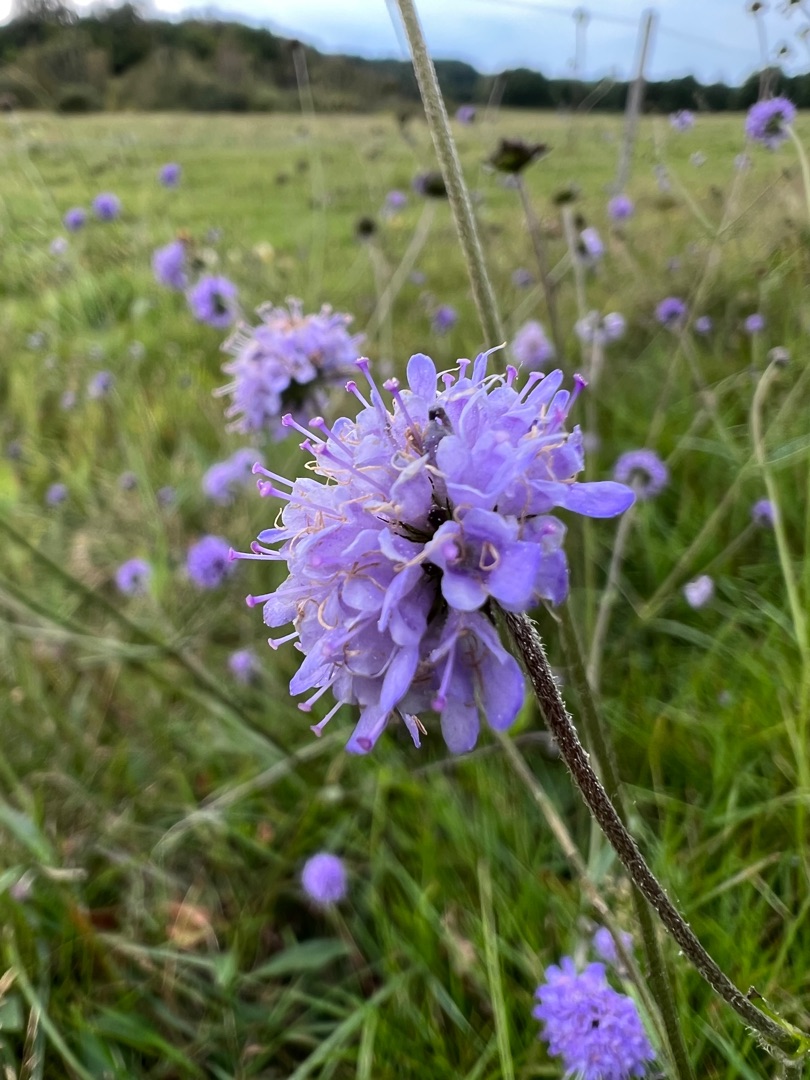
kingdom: Plantae
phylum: Tracheophyta
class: Magnoliopsida
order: Dipsacales
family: Caprifoliaceae
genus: Succisa
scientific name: Succisa pratensis
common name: Djævelsbid
